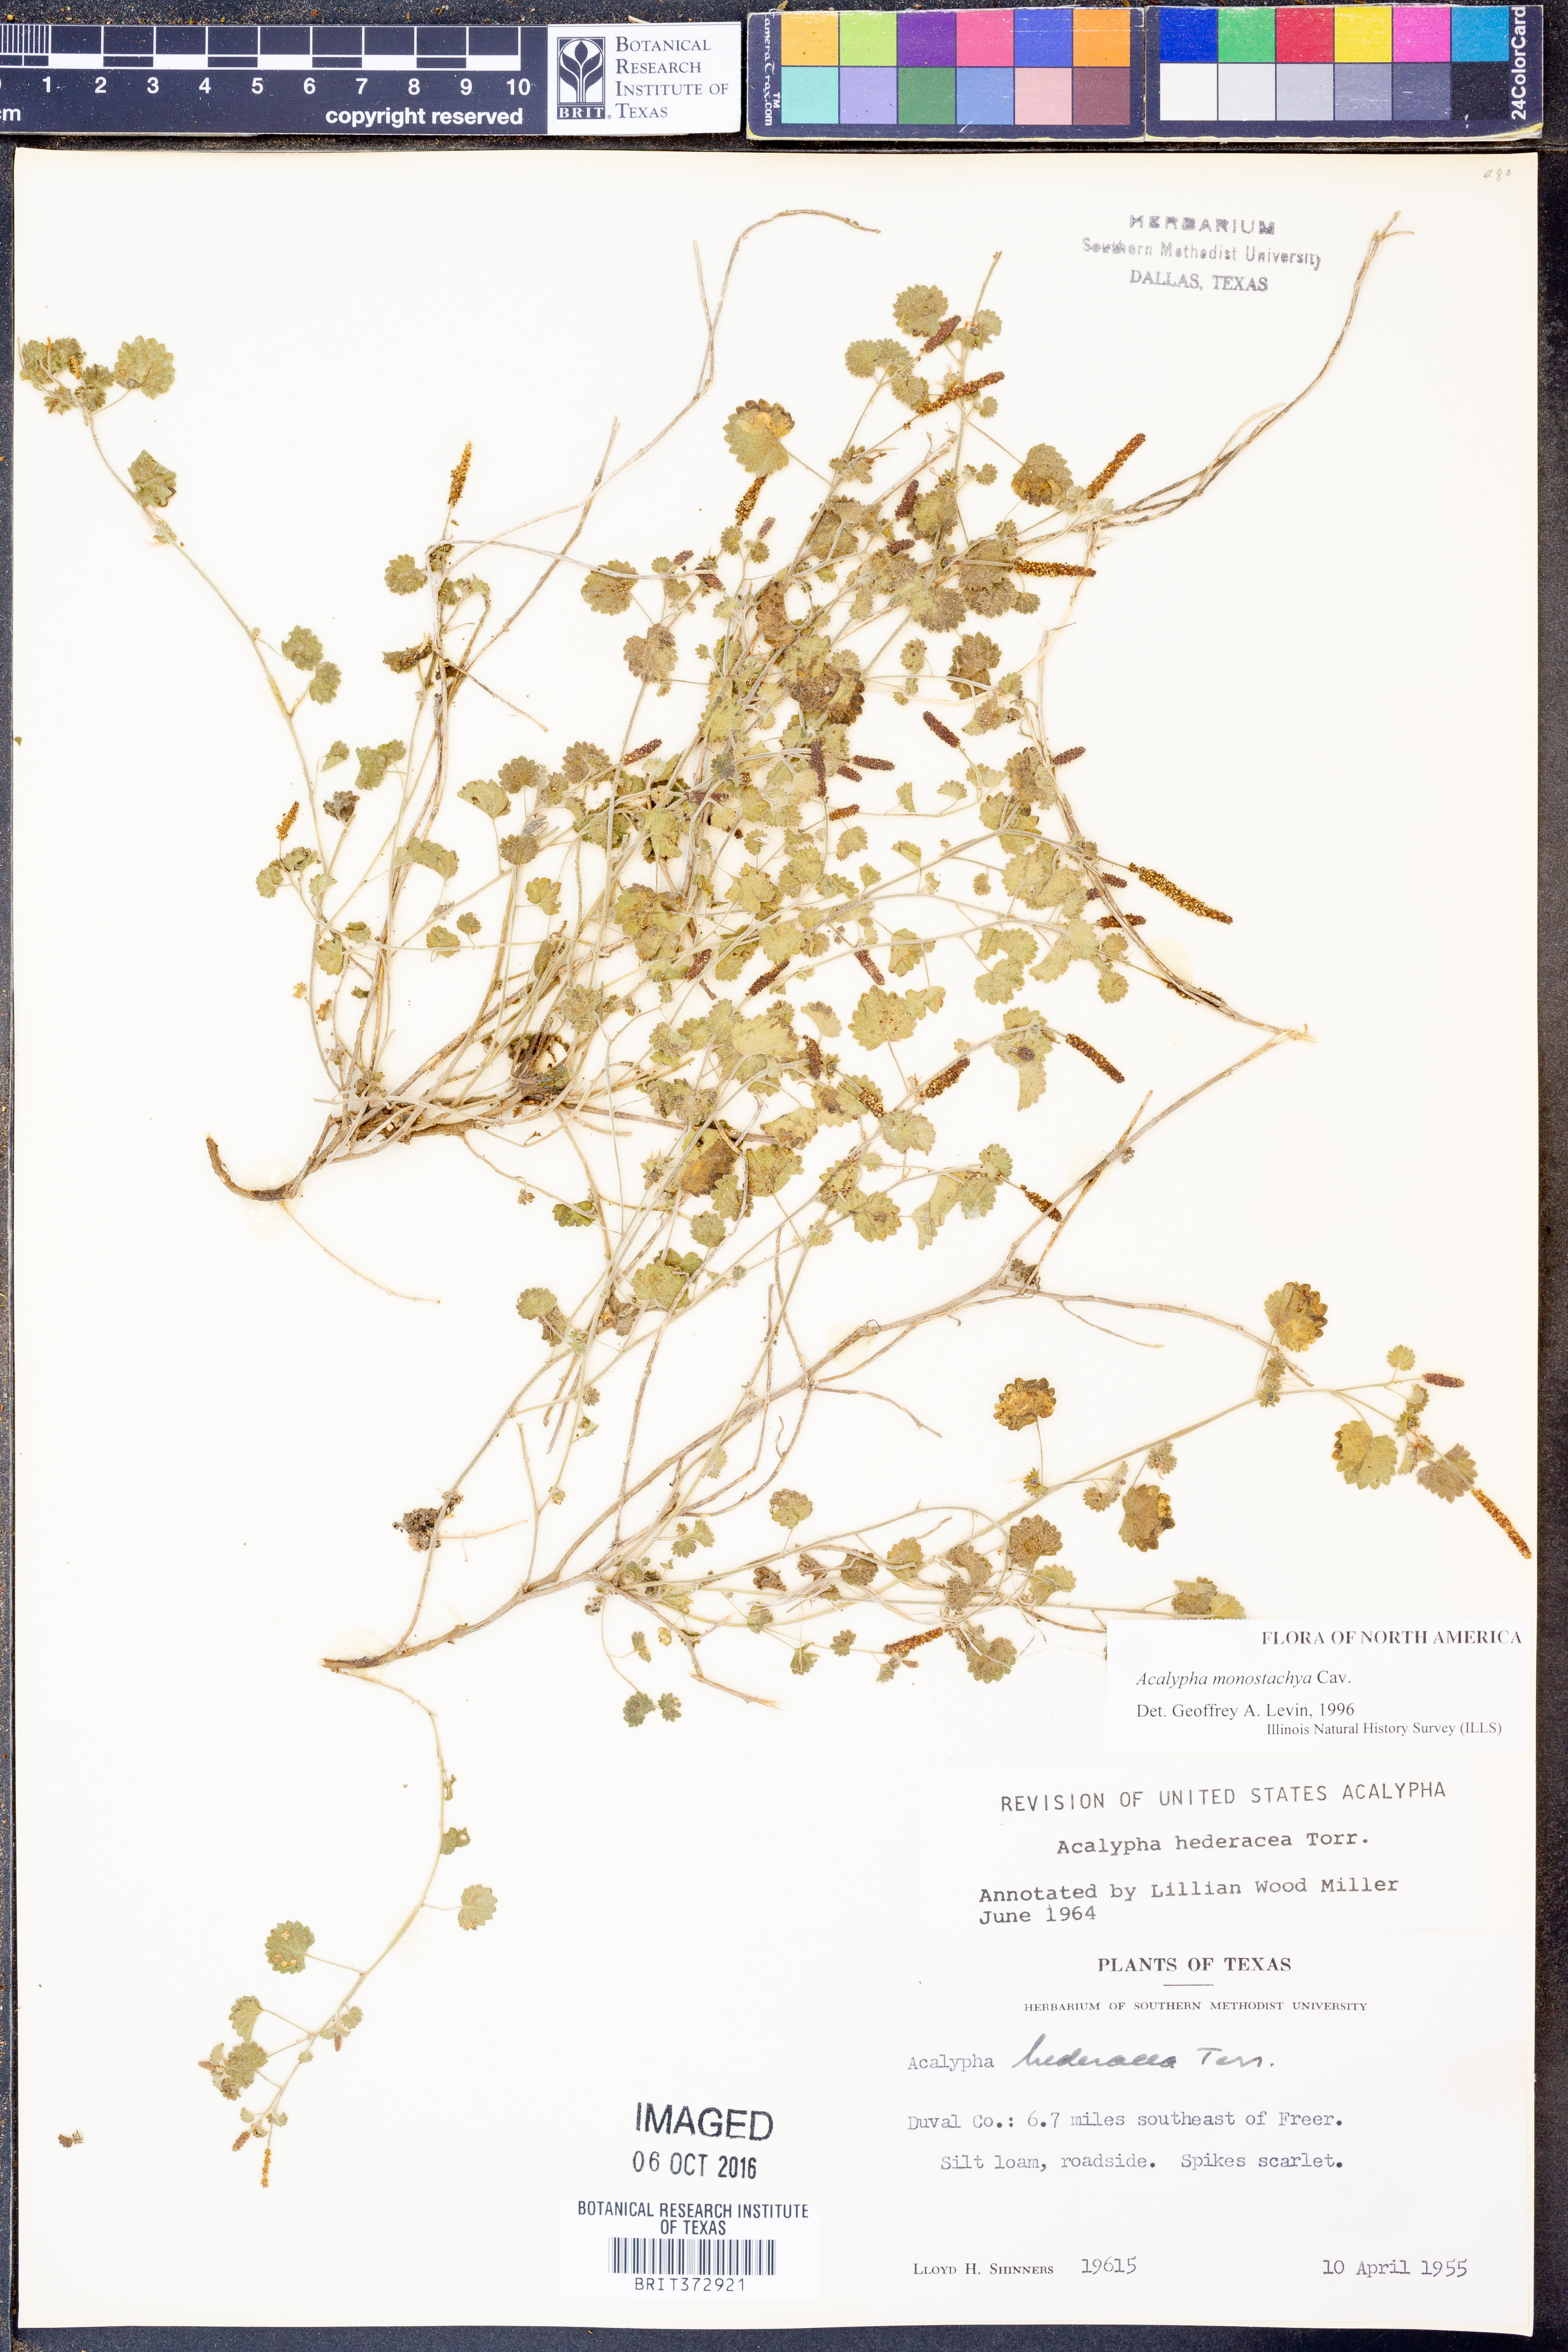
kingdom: Plantae
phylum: Tracheophyta
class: Magnoliopsida
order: Malpighiales
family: Euphorbiaceae
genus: Acalypha
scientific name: Acalypha monostachya
